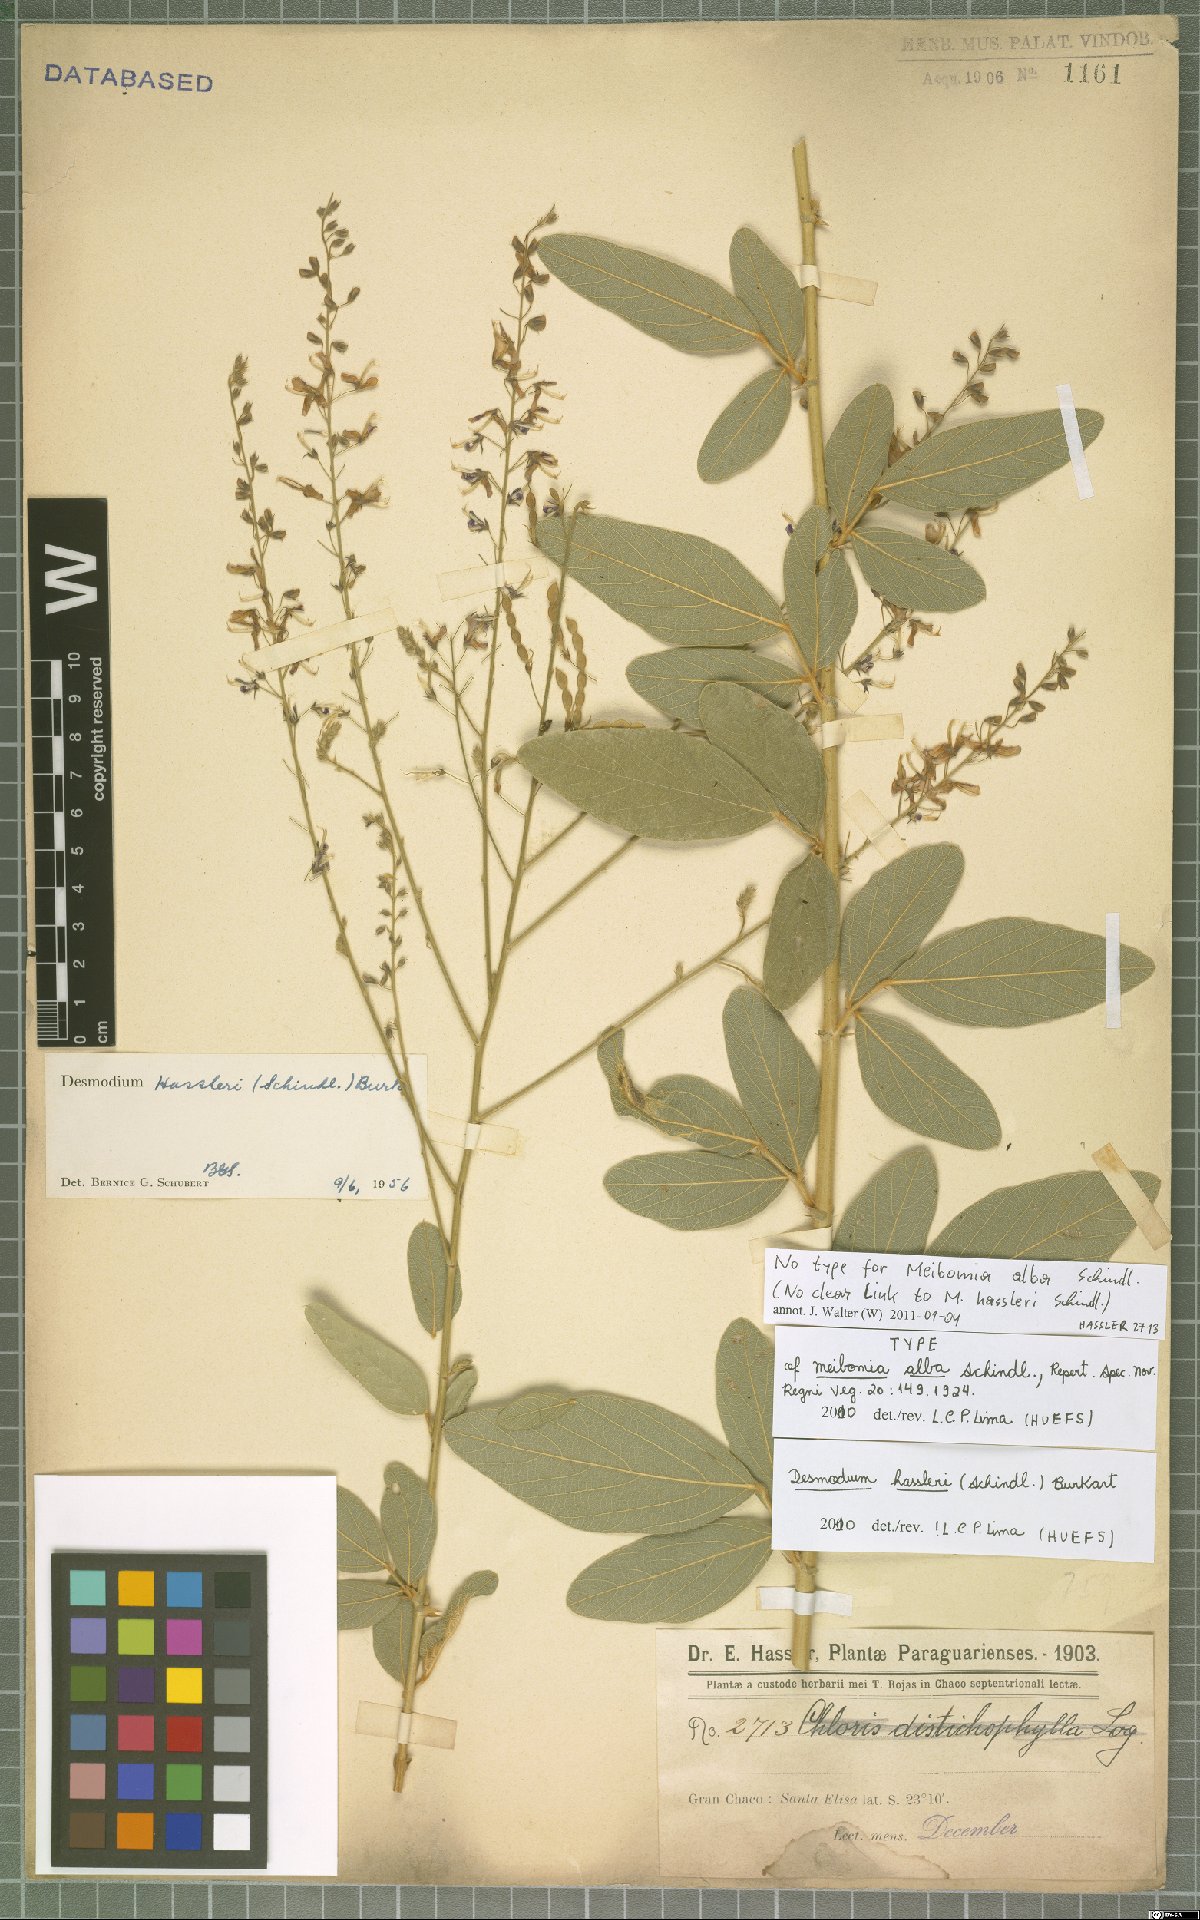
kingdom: Plantae
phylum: Tracheophyta
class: Magnoliopsida
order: Fabales
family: Fabaceae
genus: Desmodium
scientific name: Desmodium hassleri
